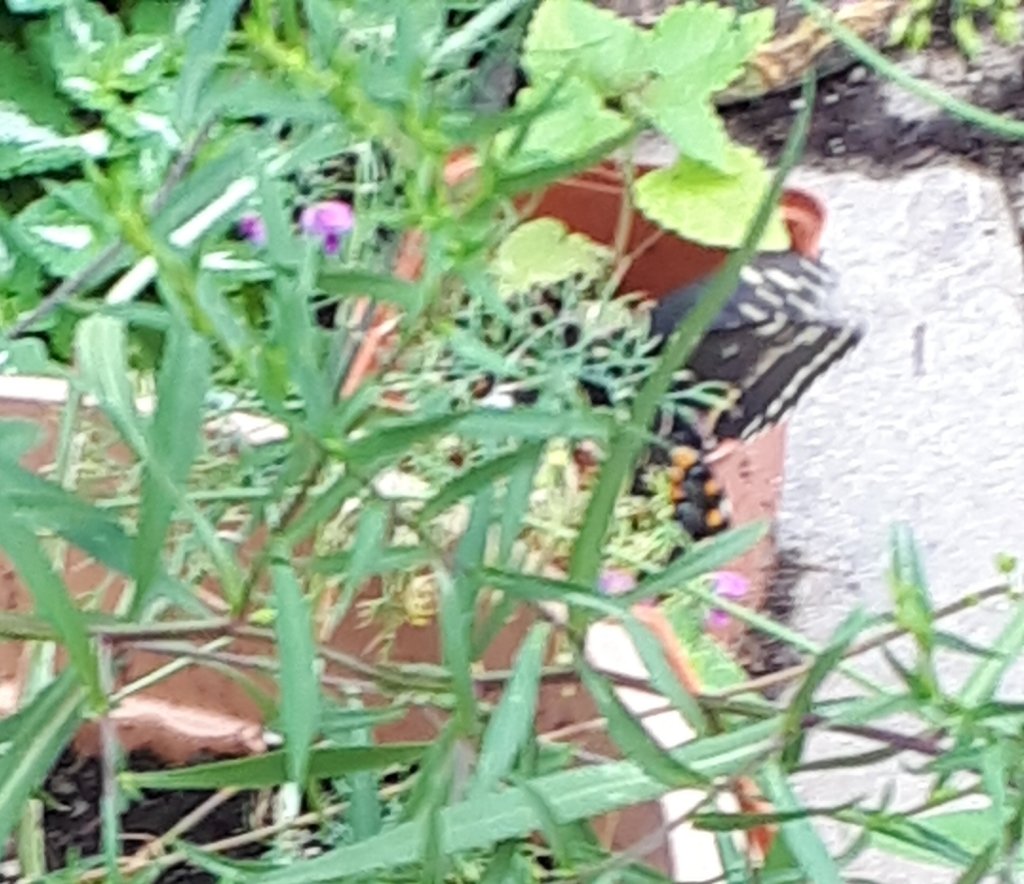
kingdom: Animalia
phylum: Arthropoda
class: Insecta
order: Lepidoptera
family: Papilionidae
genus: Papilio
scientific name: Papilio polyxenes
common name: Black Swallowtail
